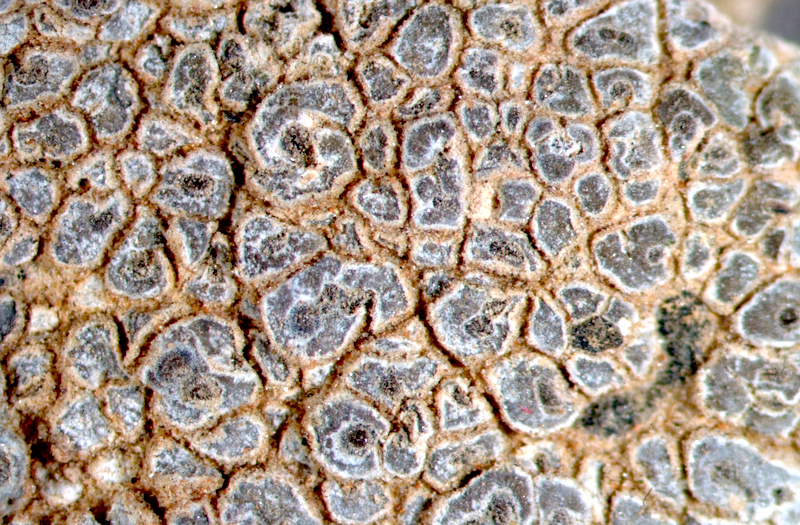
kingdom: Fungi
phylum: Ascomycota
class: Lecanoromycetes
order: Ostropales
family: Graphidaceae
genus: Diploschistes
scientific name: Diploschistes aeneus
